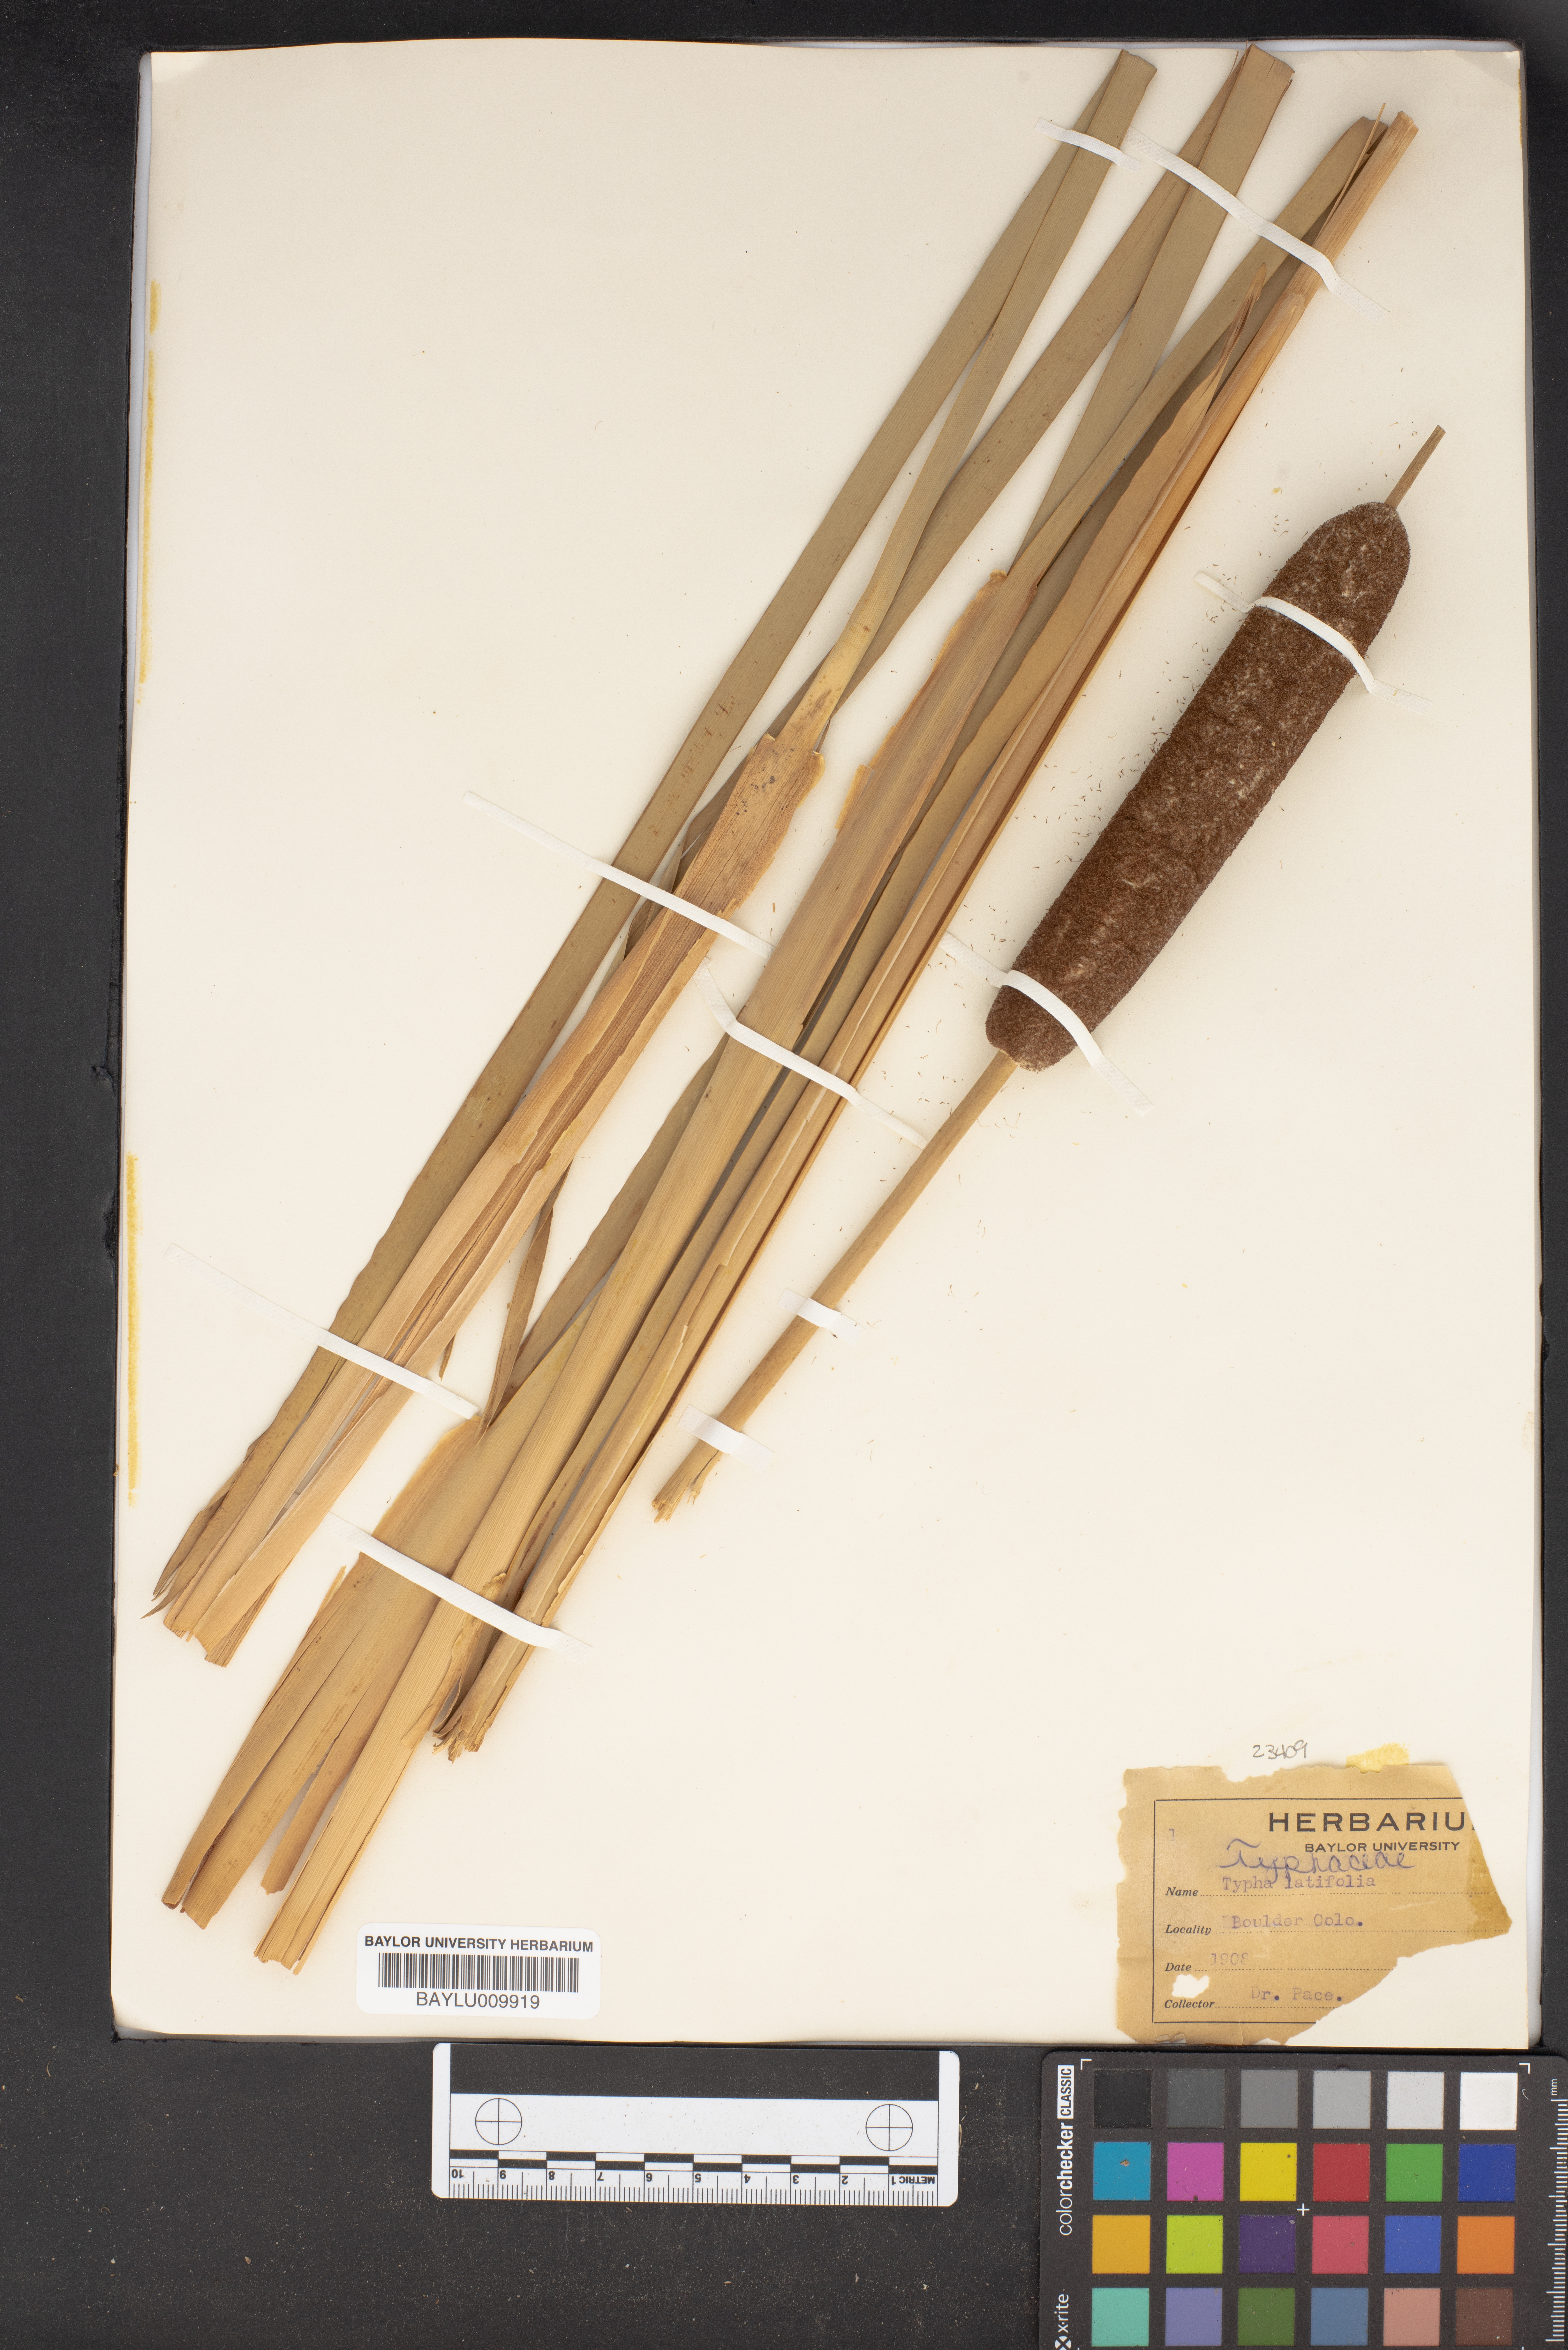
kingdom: Plantae
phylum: Tracheophyta
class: Liliopsida
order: Poales
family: Typhaceae
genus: Typha
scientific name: Typha latifolia
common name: Broadleaf cattail
